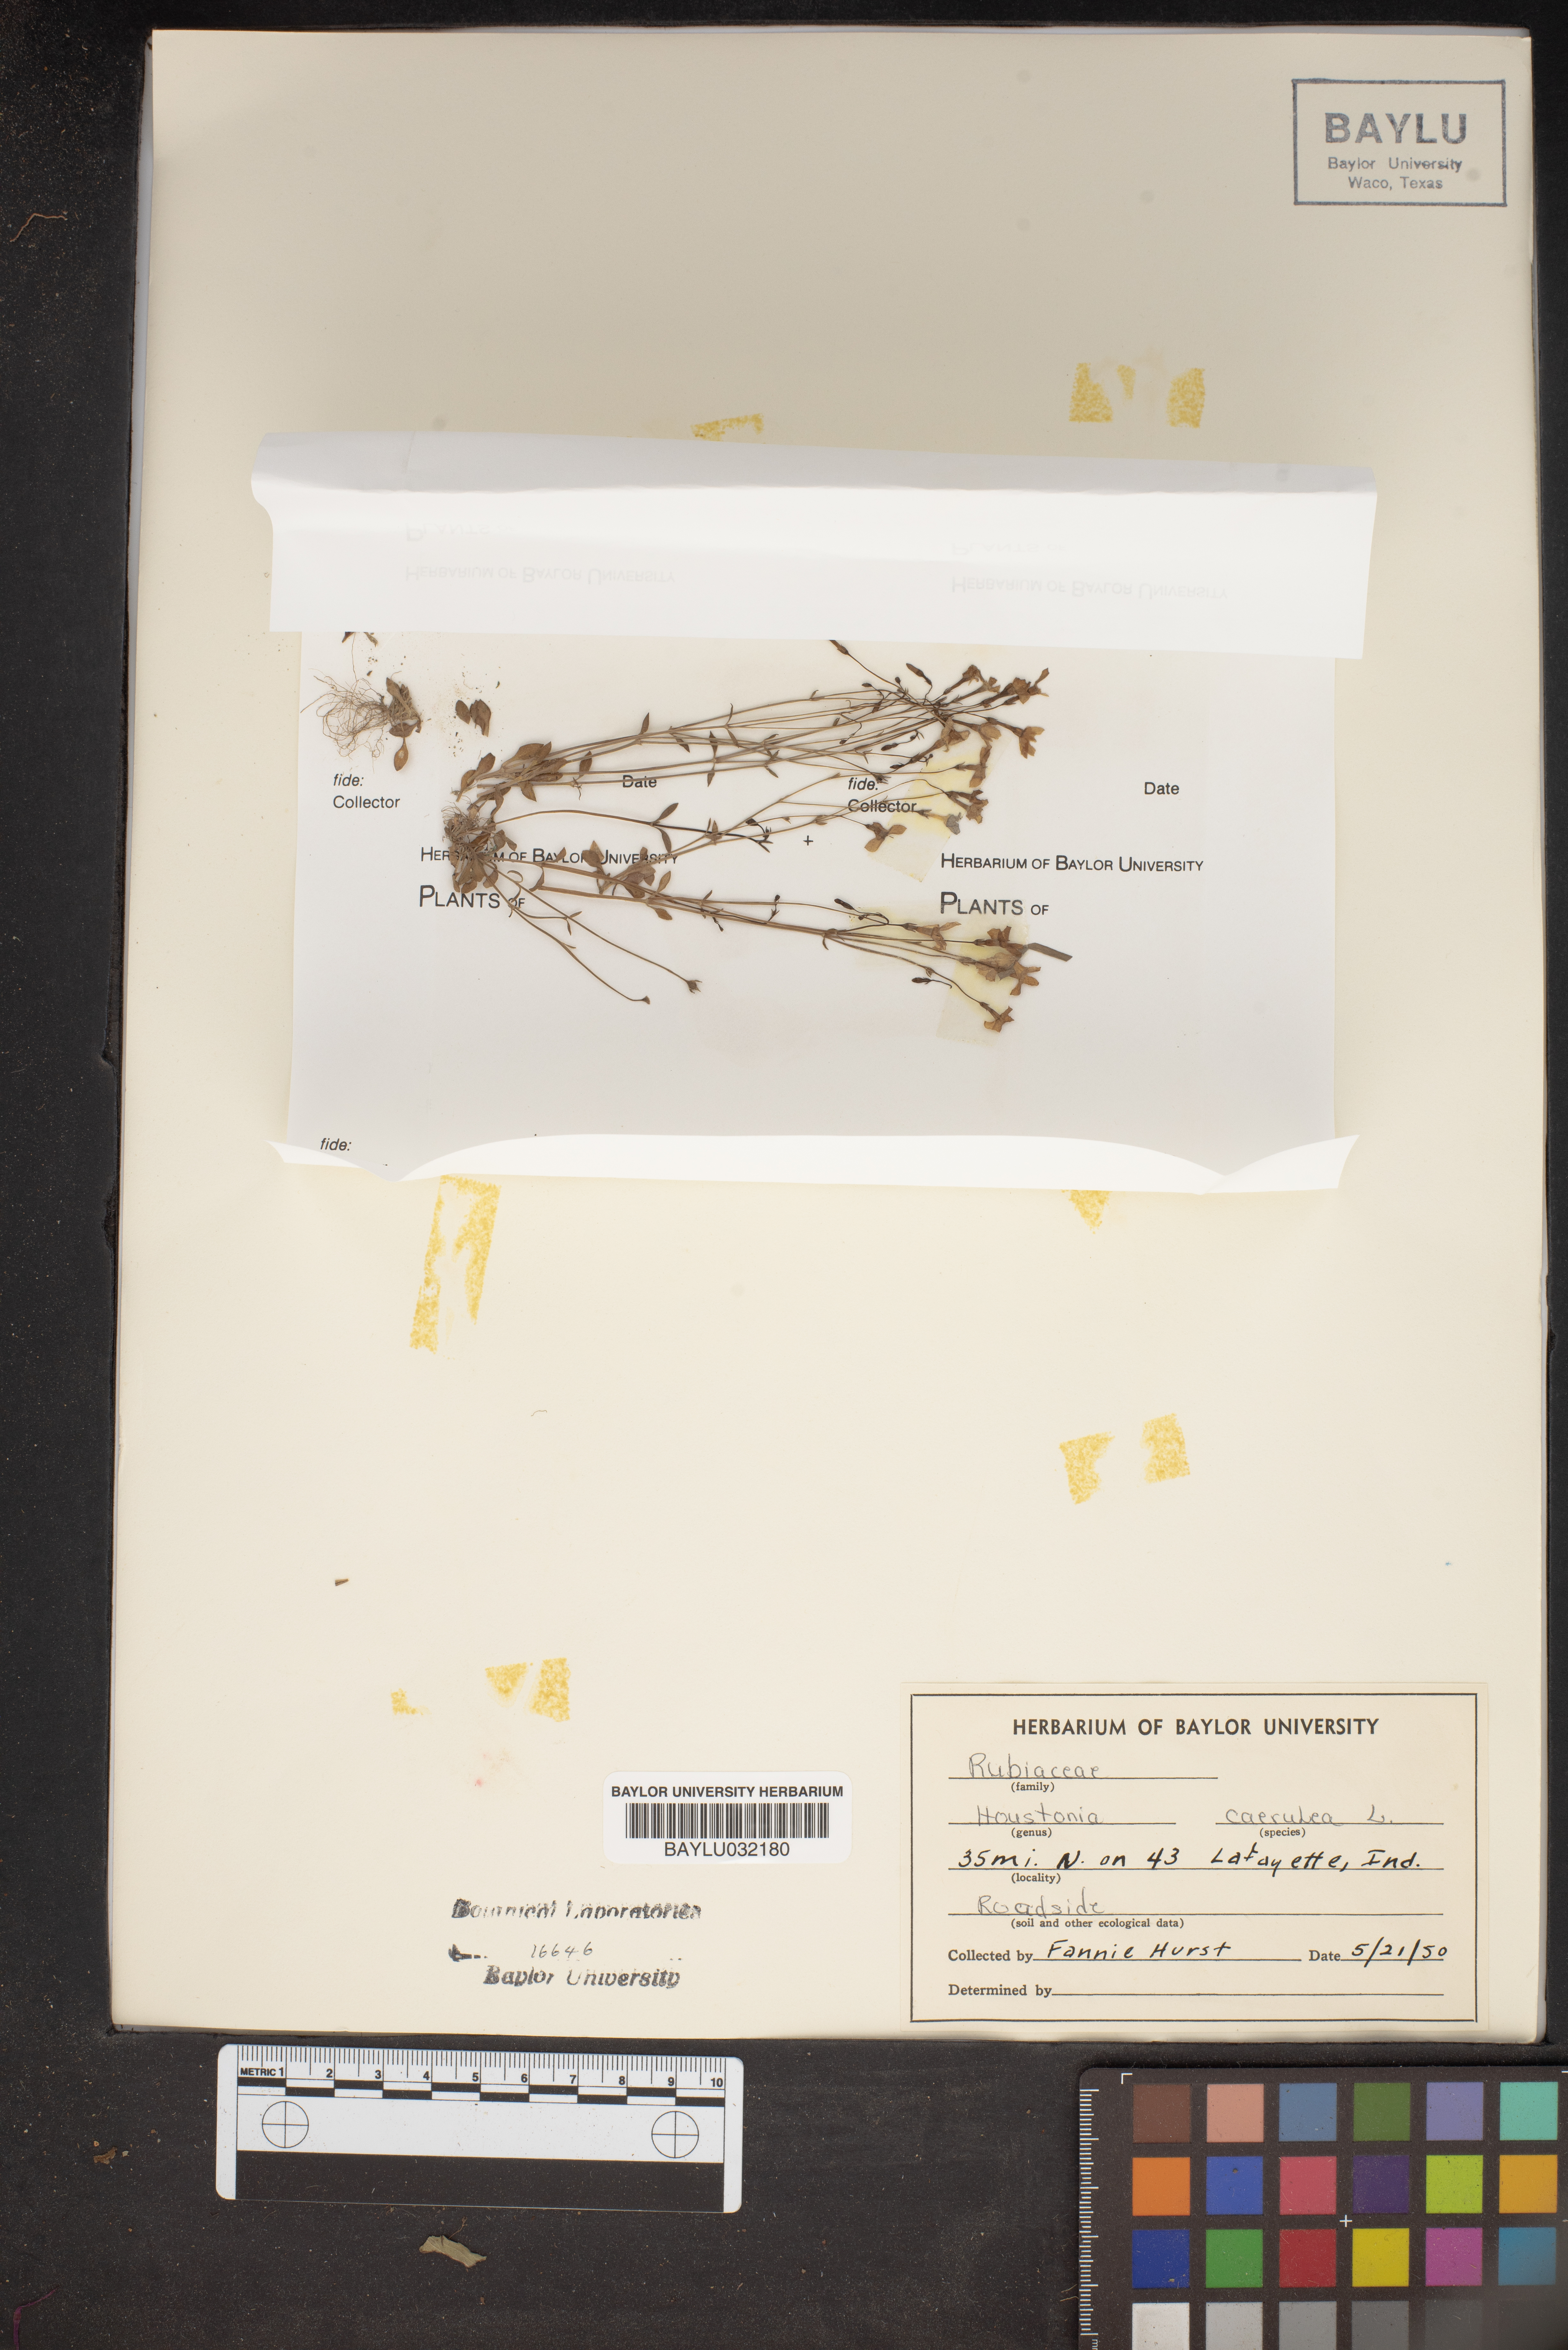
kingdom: Plantae
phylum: Tracheophyta
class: Magnoliopsida
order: Gentianales
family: Rubiaceae
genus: Houstonia
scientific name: Houstonia caerulea
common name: Bluets
